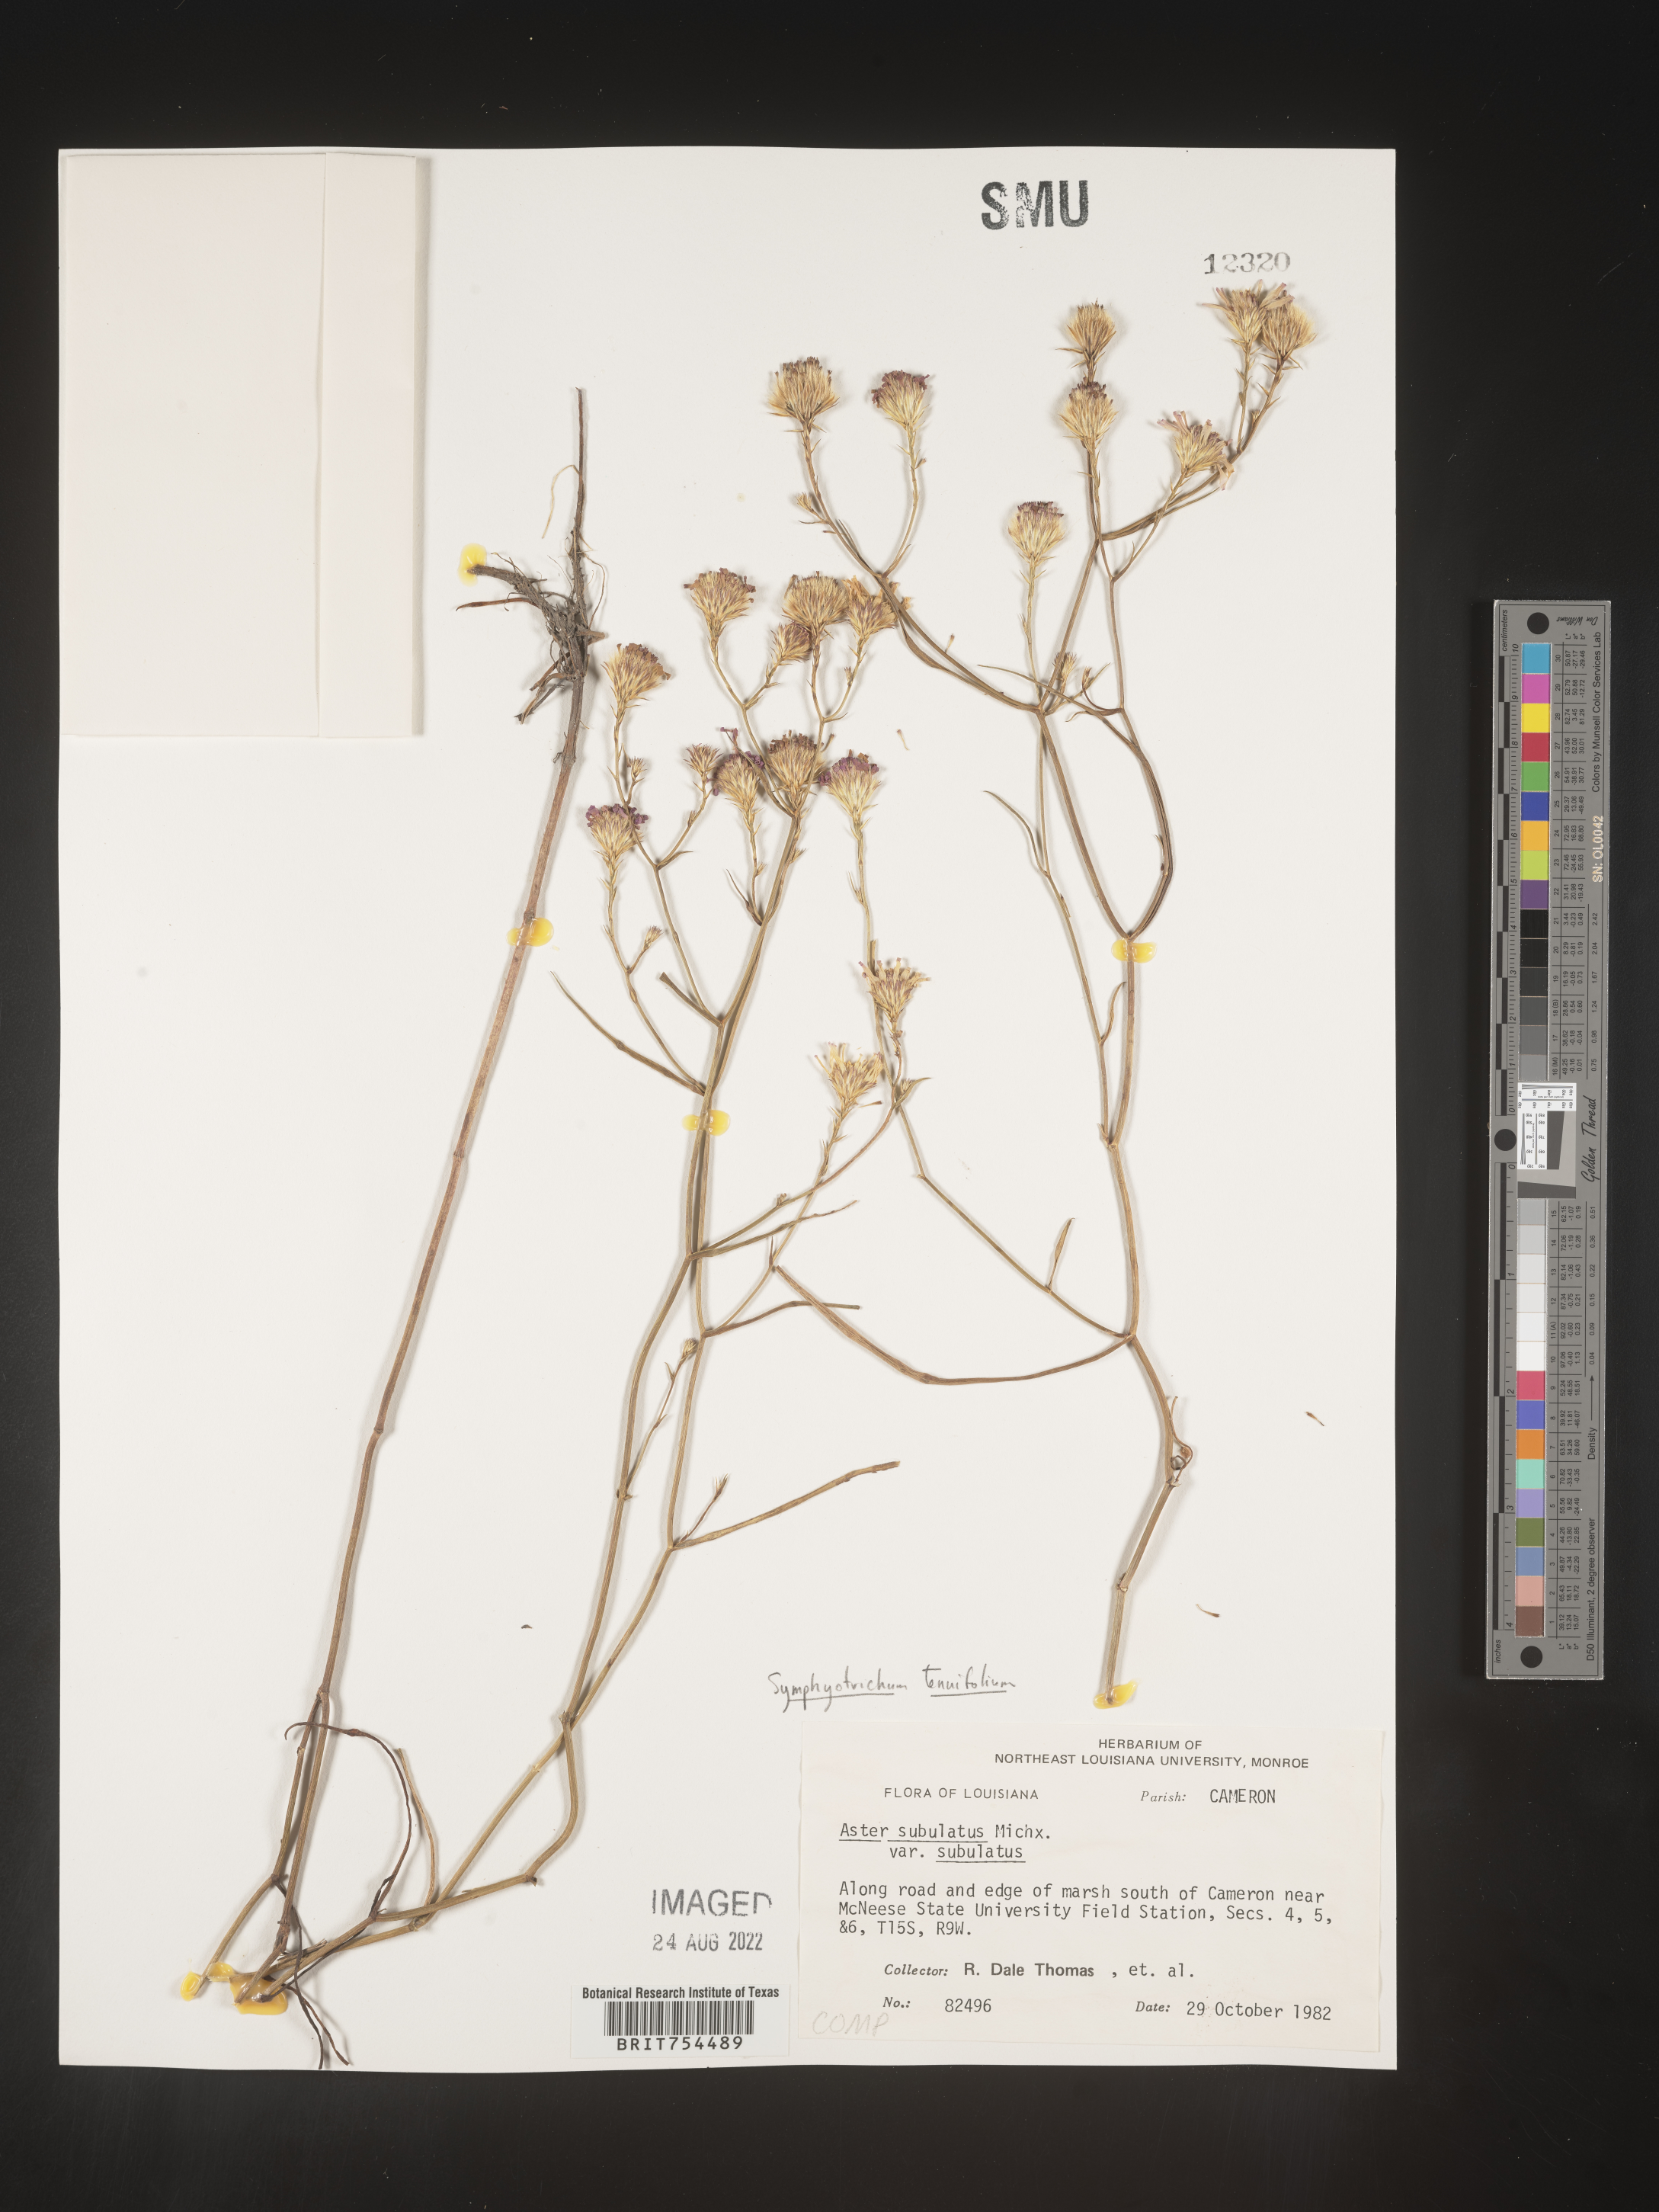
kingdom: Plantae
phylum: Tracheophyta
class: Magnoliopsida
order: Asterales
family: Asteraceae
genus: Symphyotrichum
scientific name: Symphyotrichum tenuifolium
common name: Perennial salt-marsh aster
